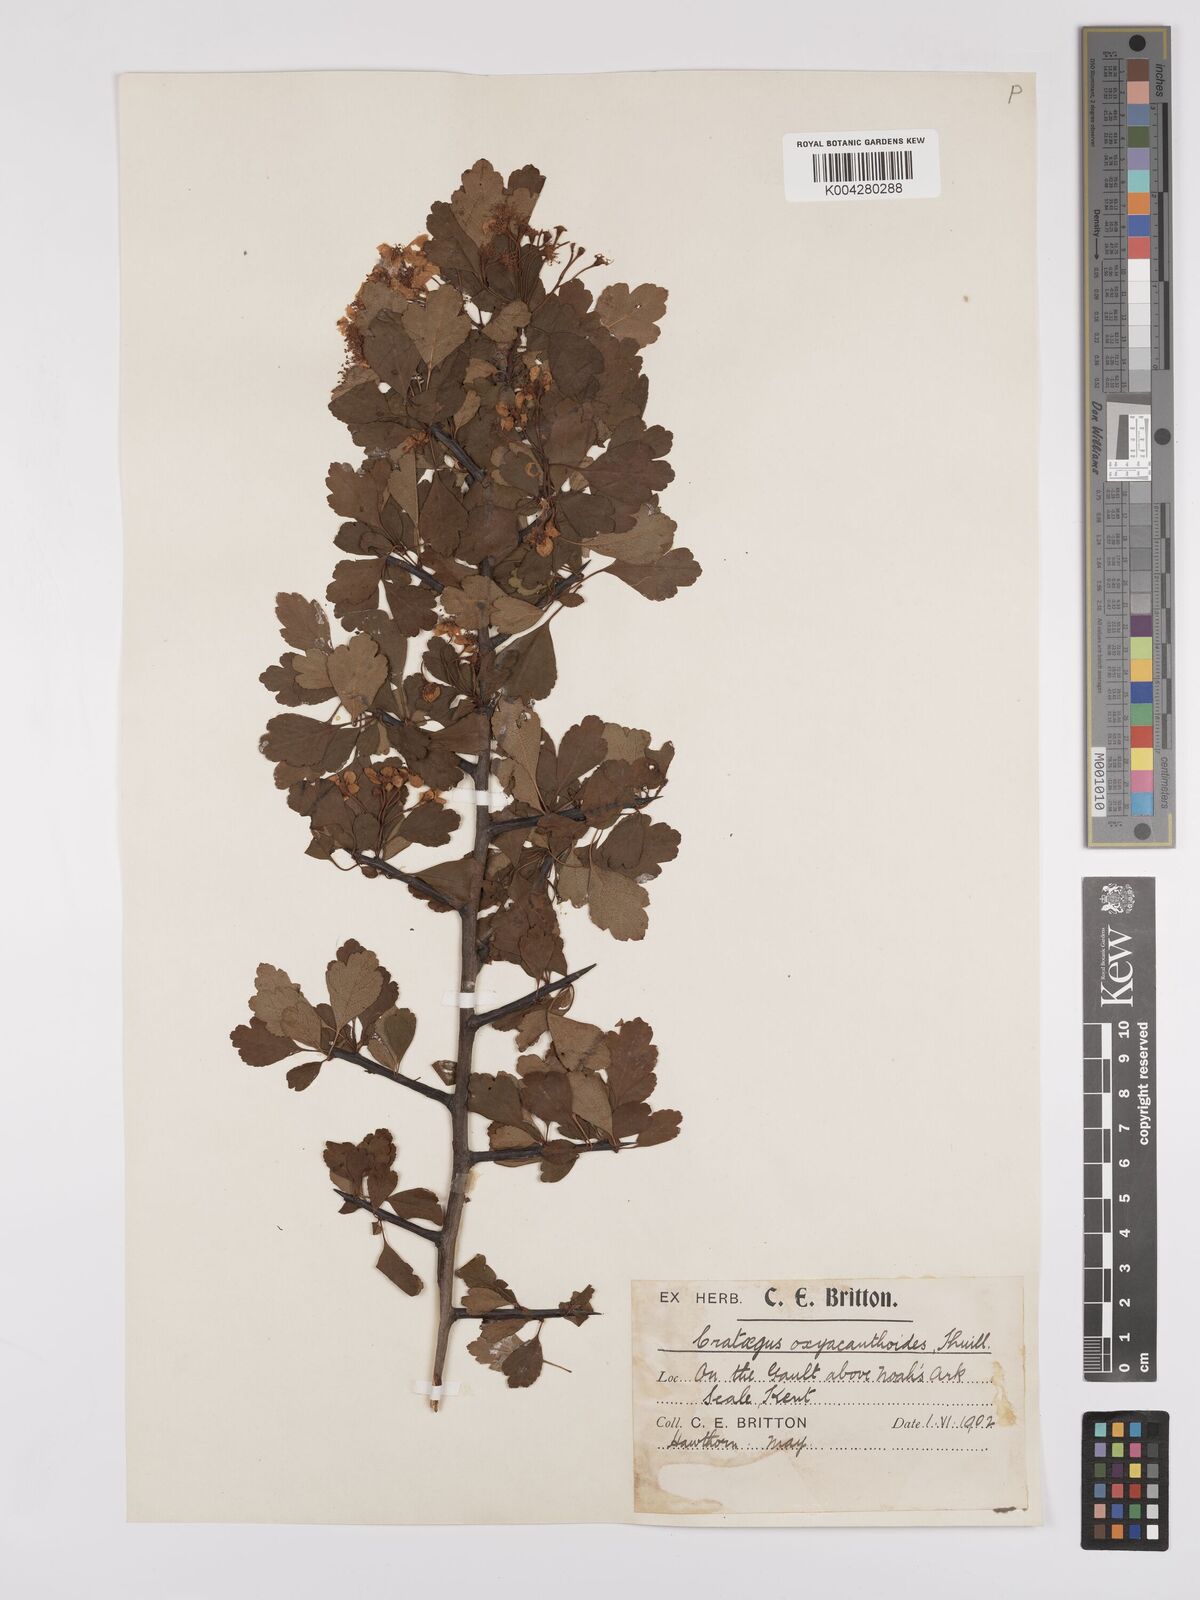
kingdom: Plantae
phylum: Tracheophyta
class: Magnoliopsida
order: Rosales
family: Rosaceae
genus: Crataegus
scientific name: Crataegus laevigata
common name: Midland hawthorn
